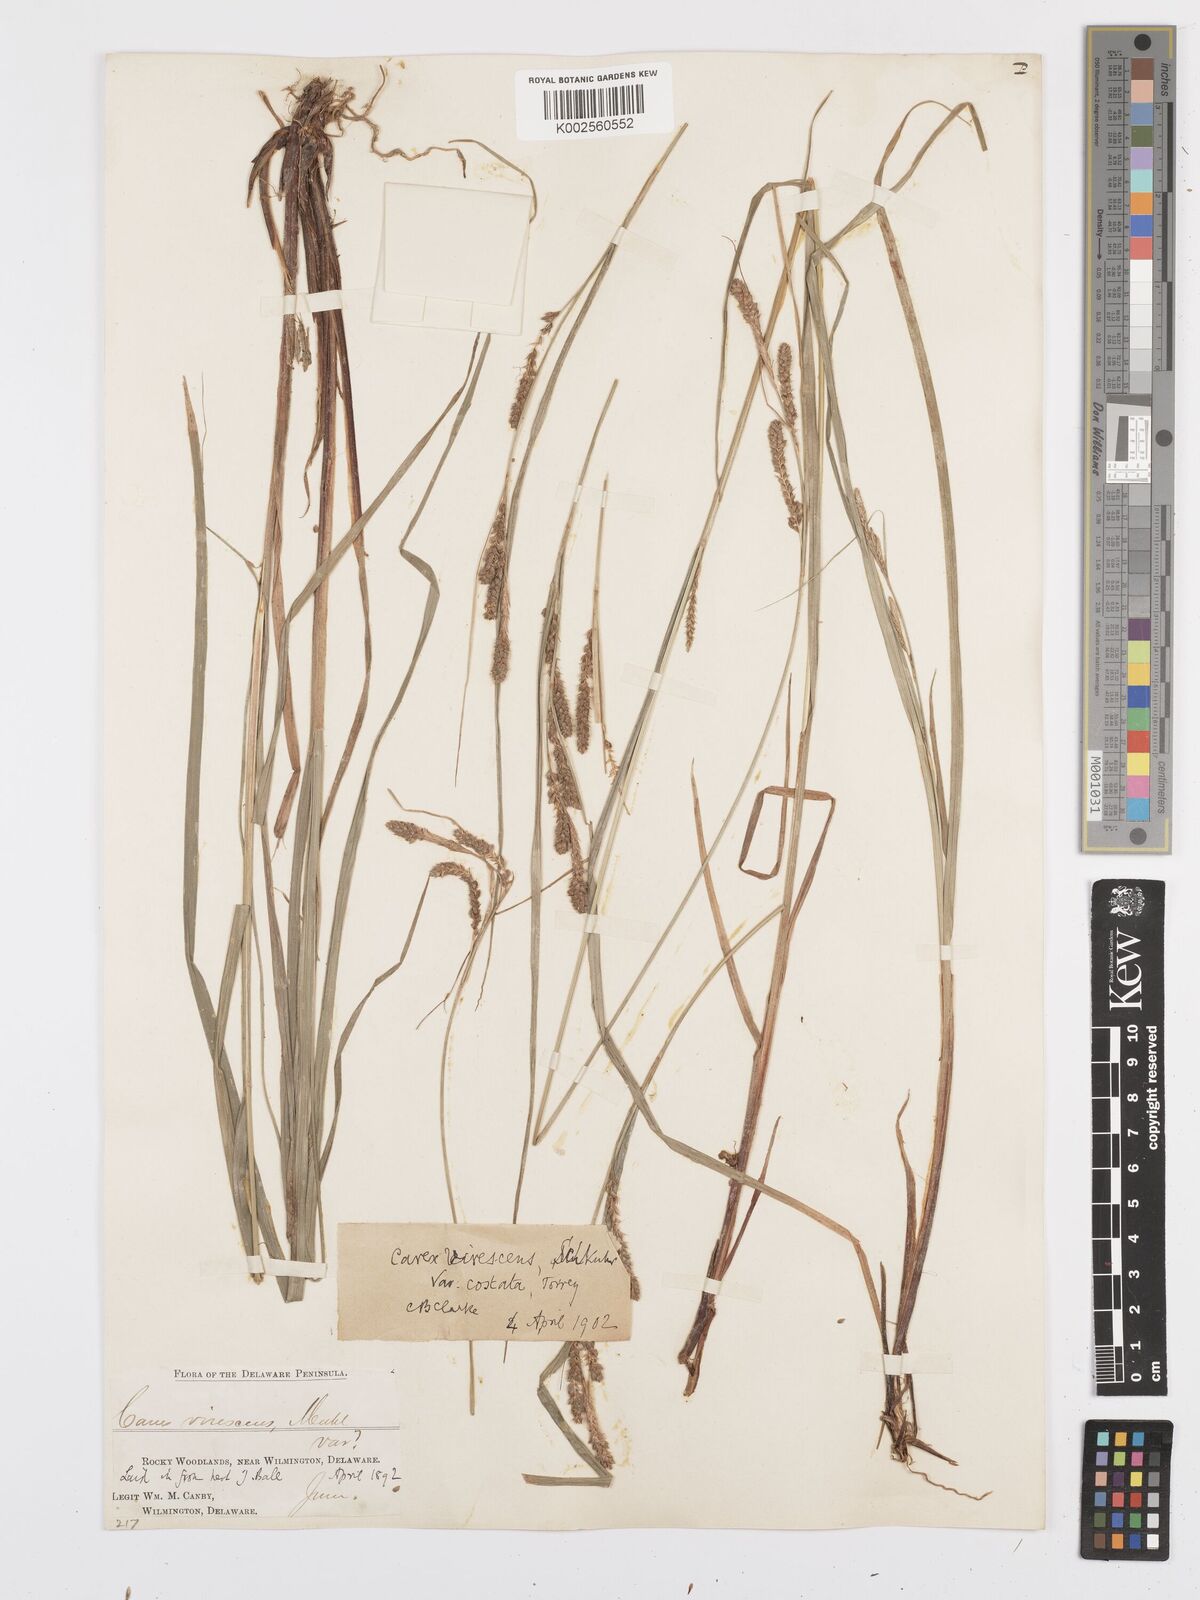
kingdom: Plantae
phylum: Tracheophyta
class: Liliopsida
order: Poales
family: Cyperaceae
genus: Carex
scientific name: Carex virescens
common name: Ribbed sedge
